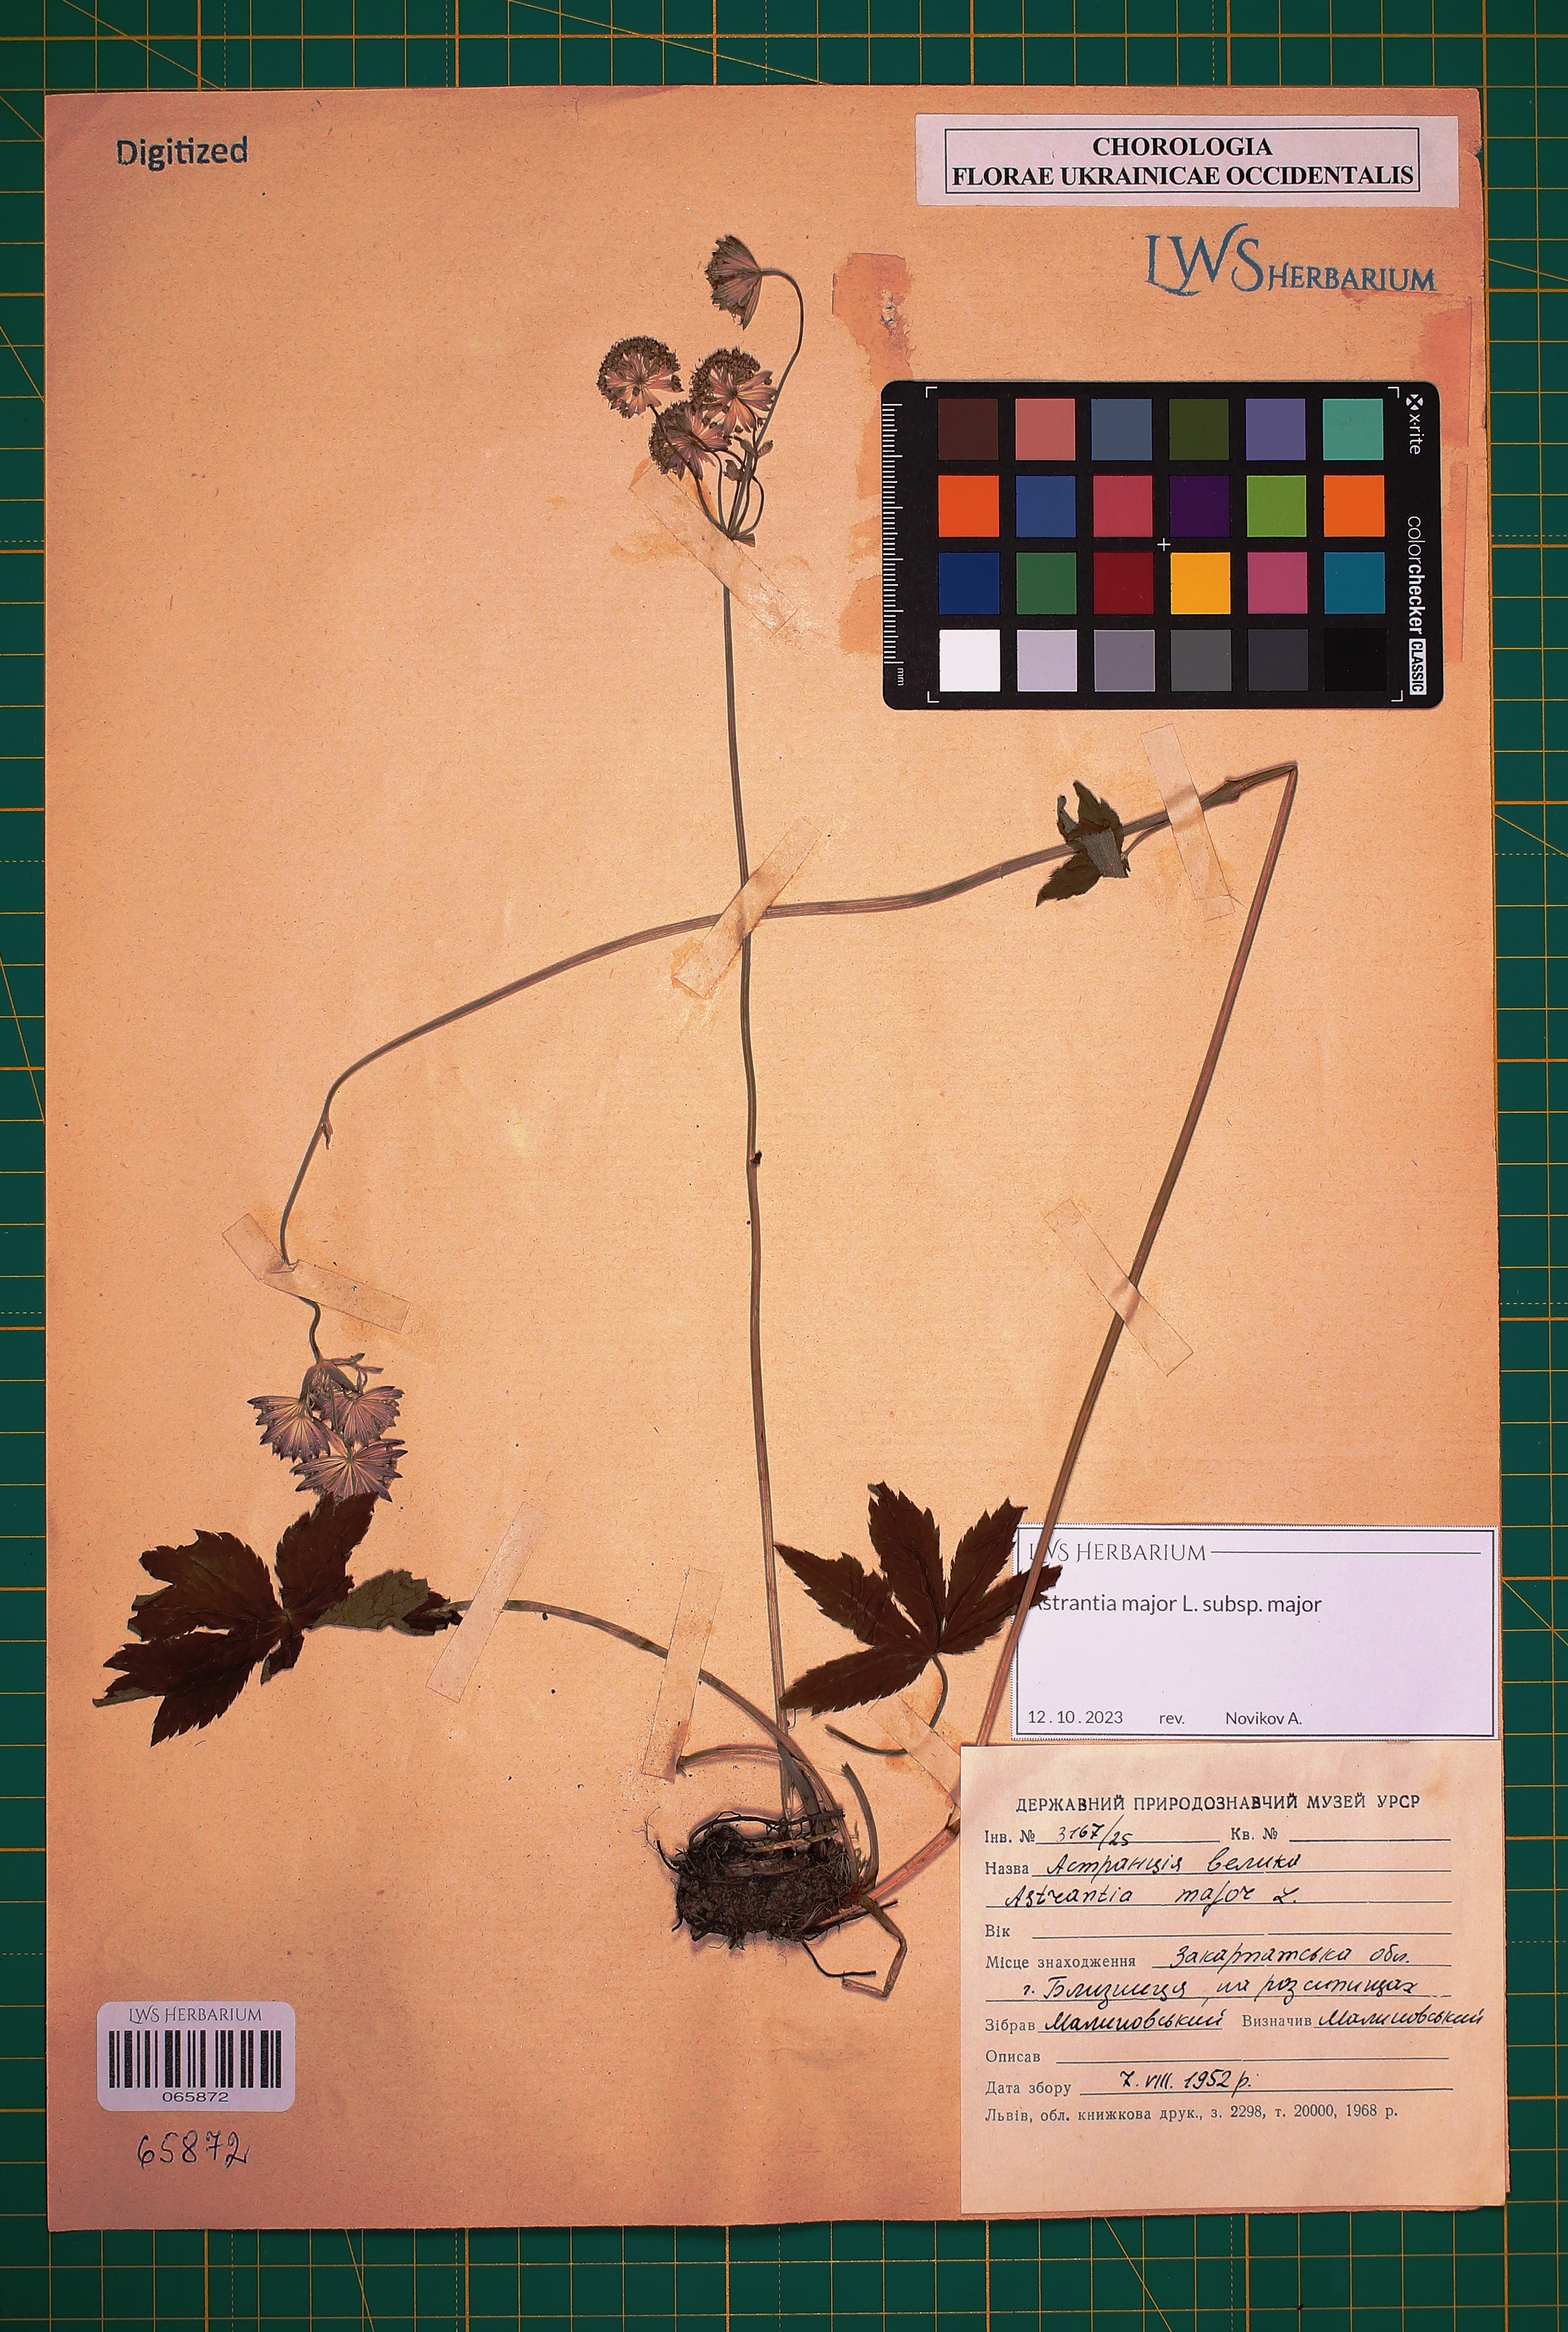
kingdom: Plantae
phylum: Tracheophyta
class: Magnoliopsida
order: Apiales
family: Apiaceae
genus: Astrantia
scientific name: Astrantia major
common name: Greater masterwort
